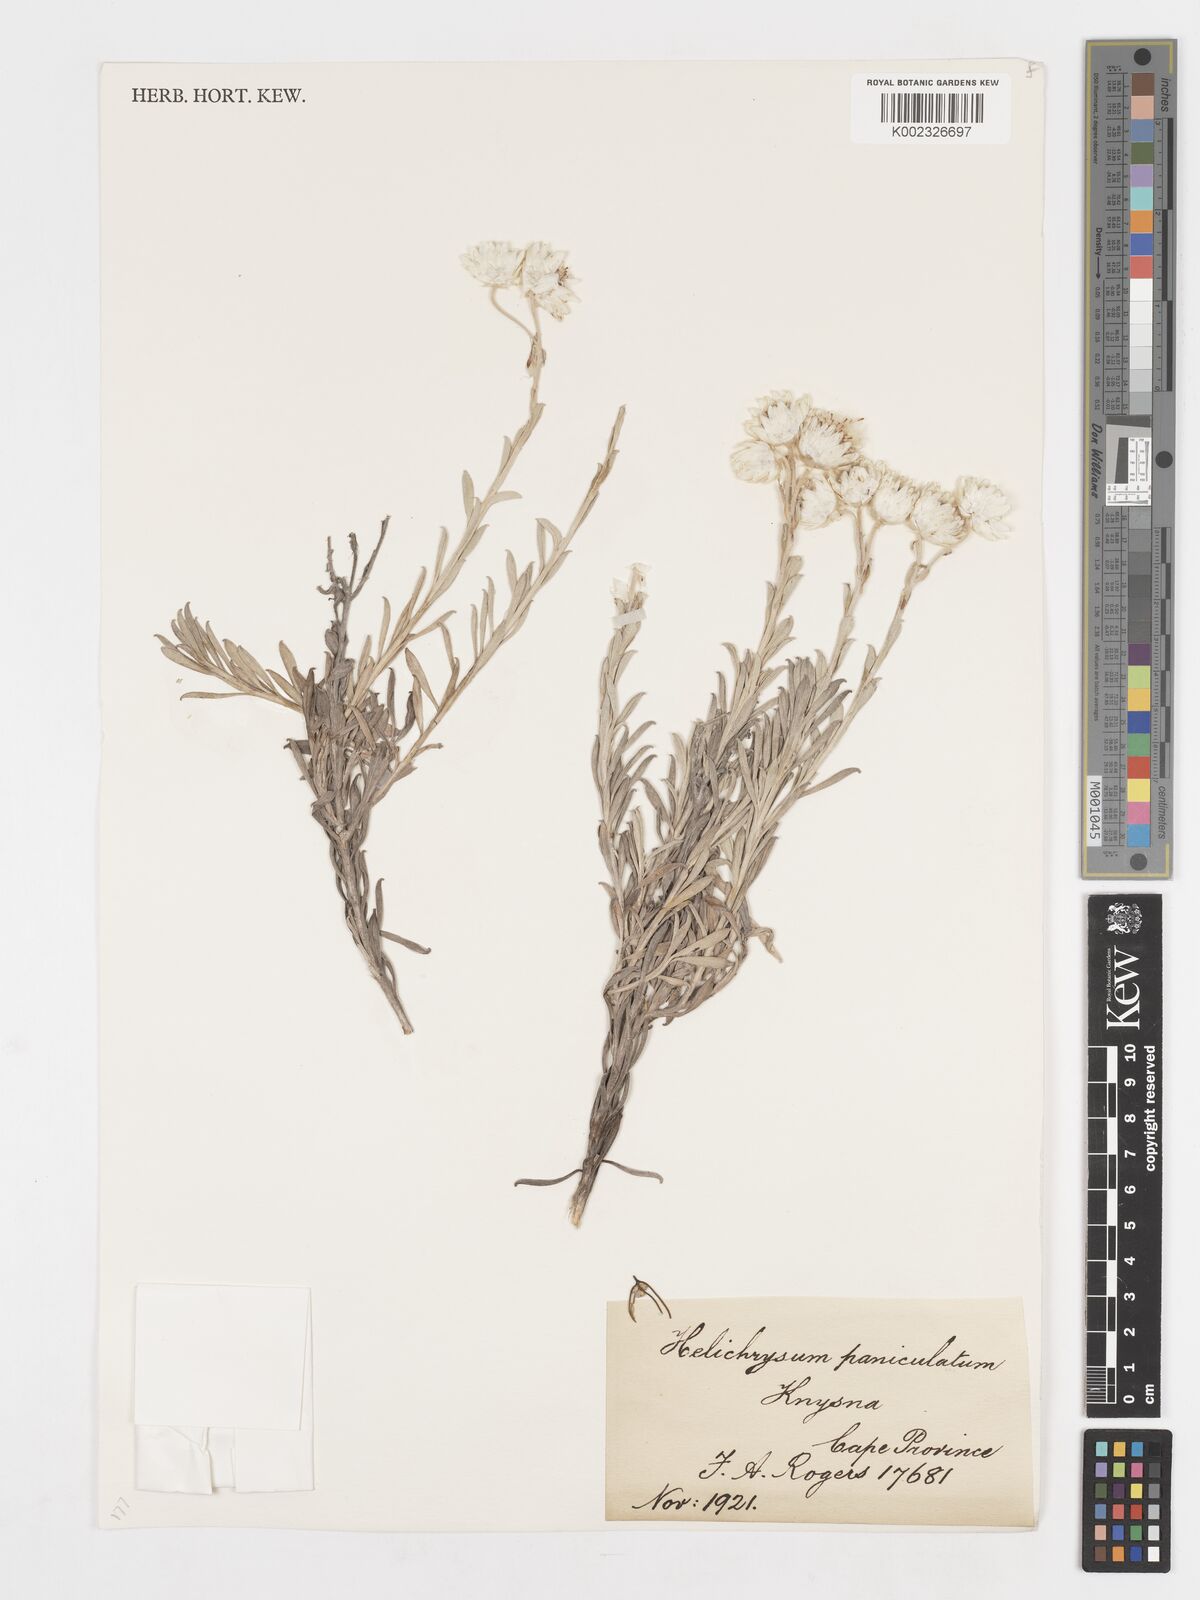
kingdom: Plantae
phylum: Tracheophyta
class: Magnoliopsida
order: Asterales
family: Asteraceae
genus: Achyranthemum
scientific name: Achyranthemum paniculatum
